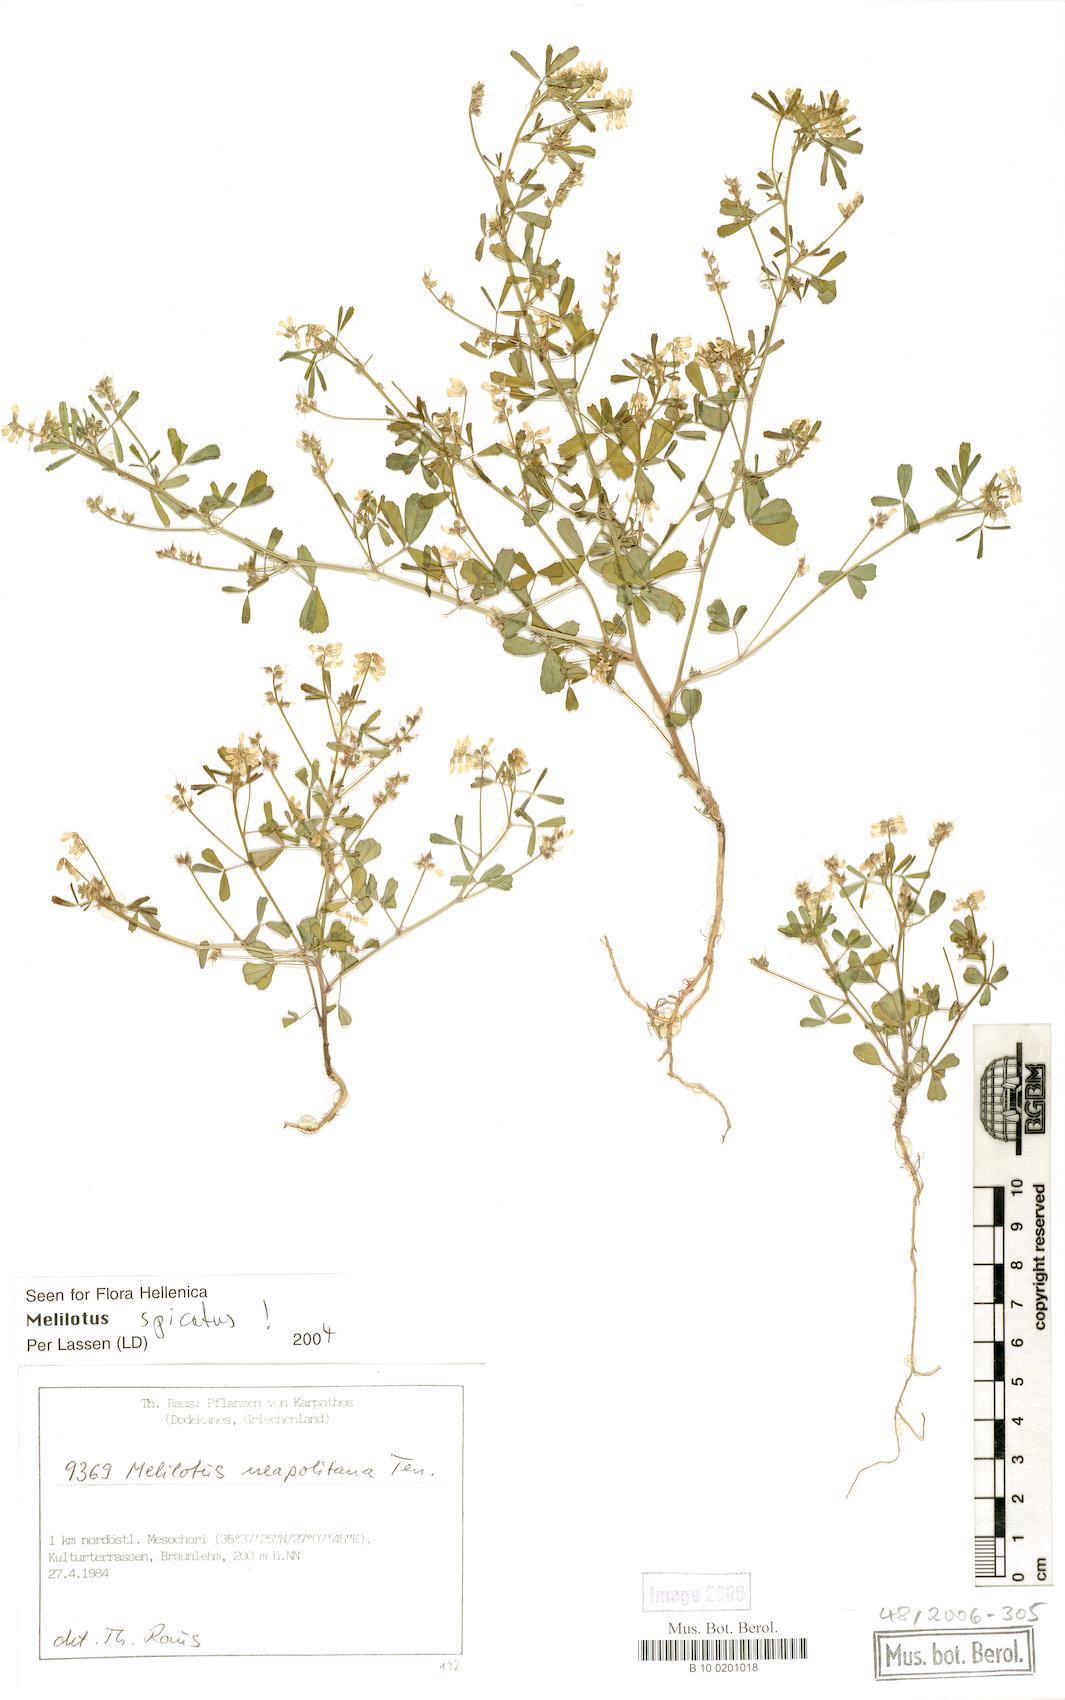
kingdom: Plantae
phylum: Tracheophyta
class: Magnoliopsida
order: Fabales
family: Fabaceae
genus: Melilotus
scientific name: Melilotus neapolitanus
